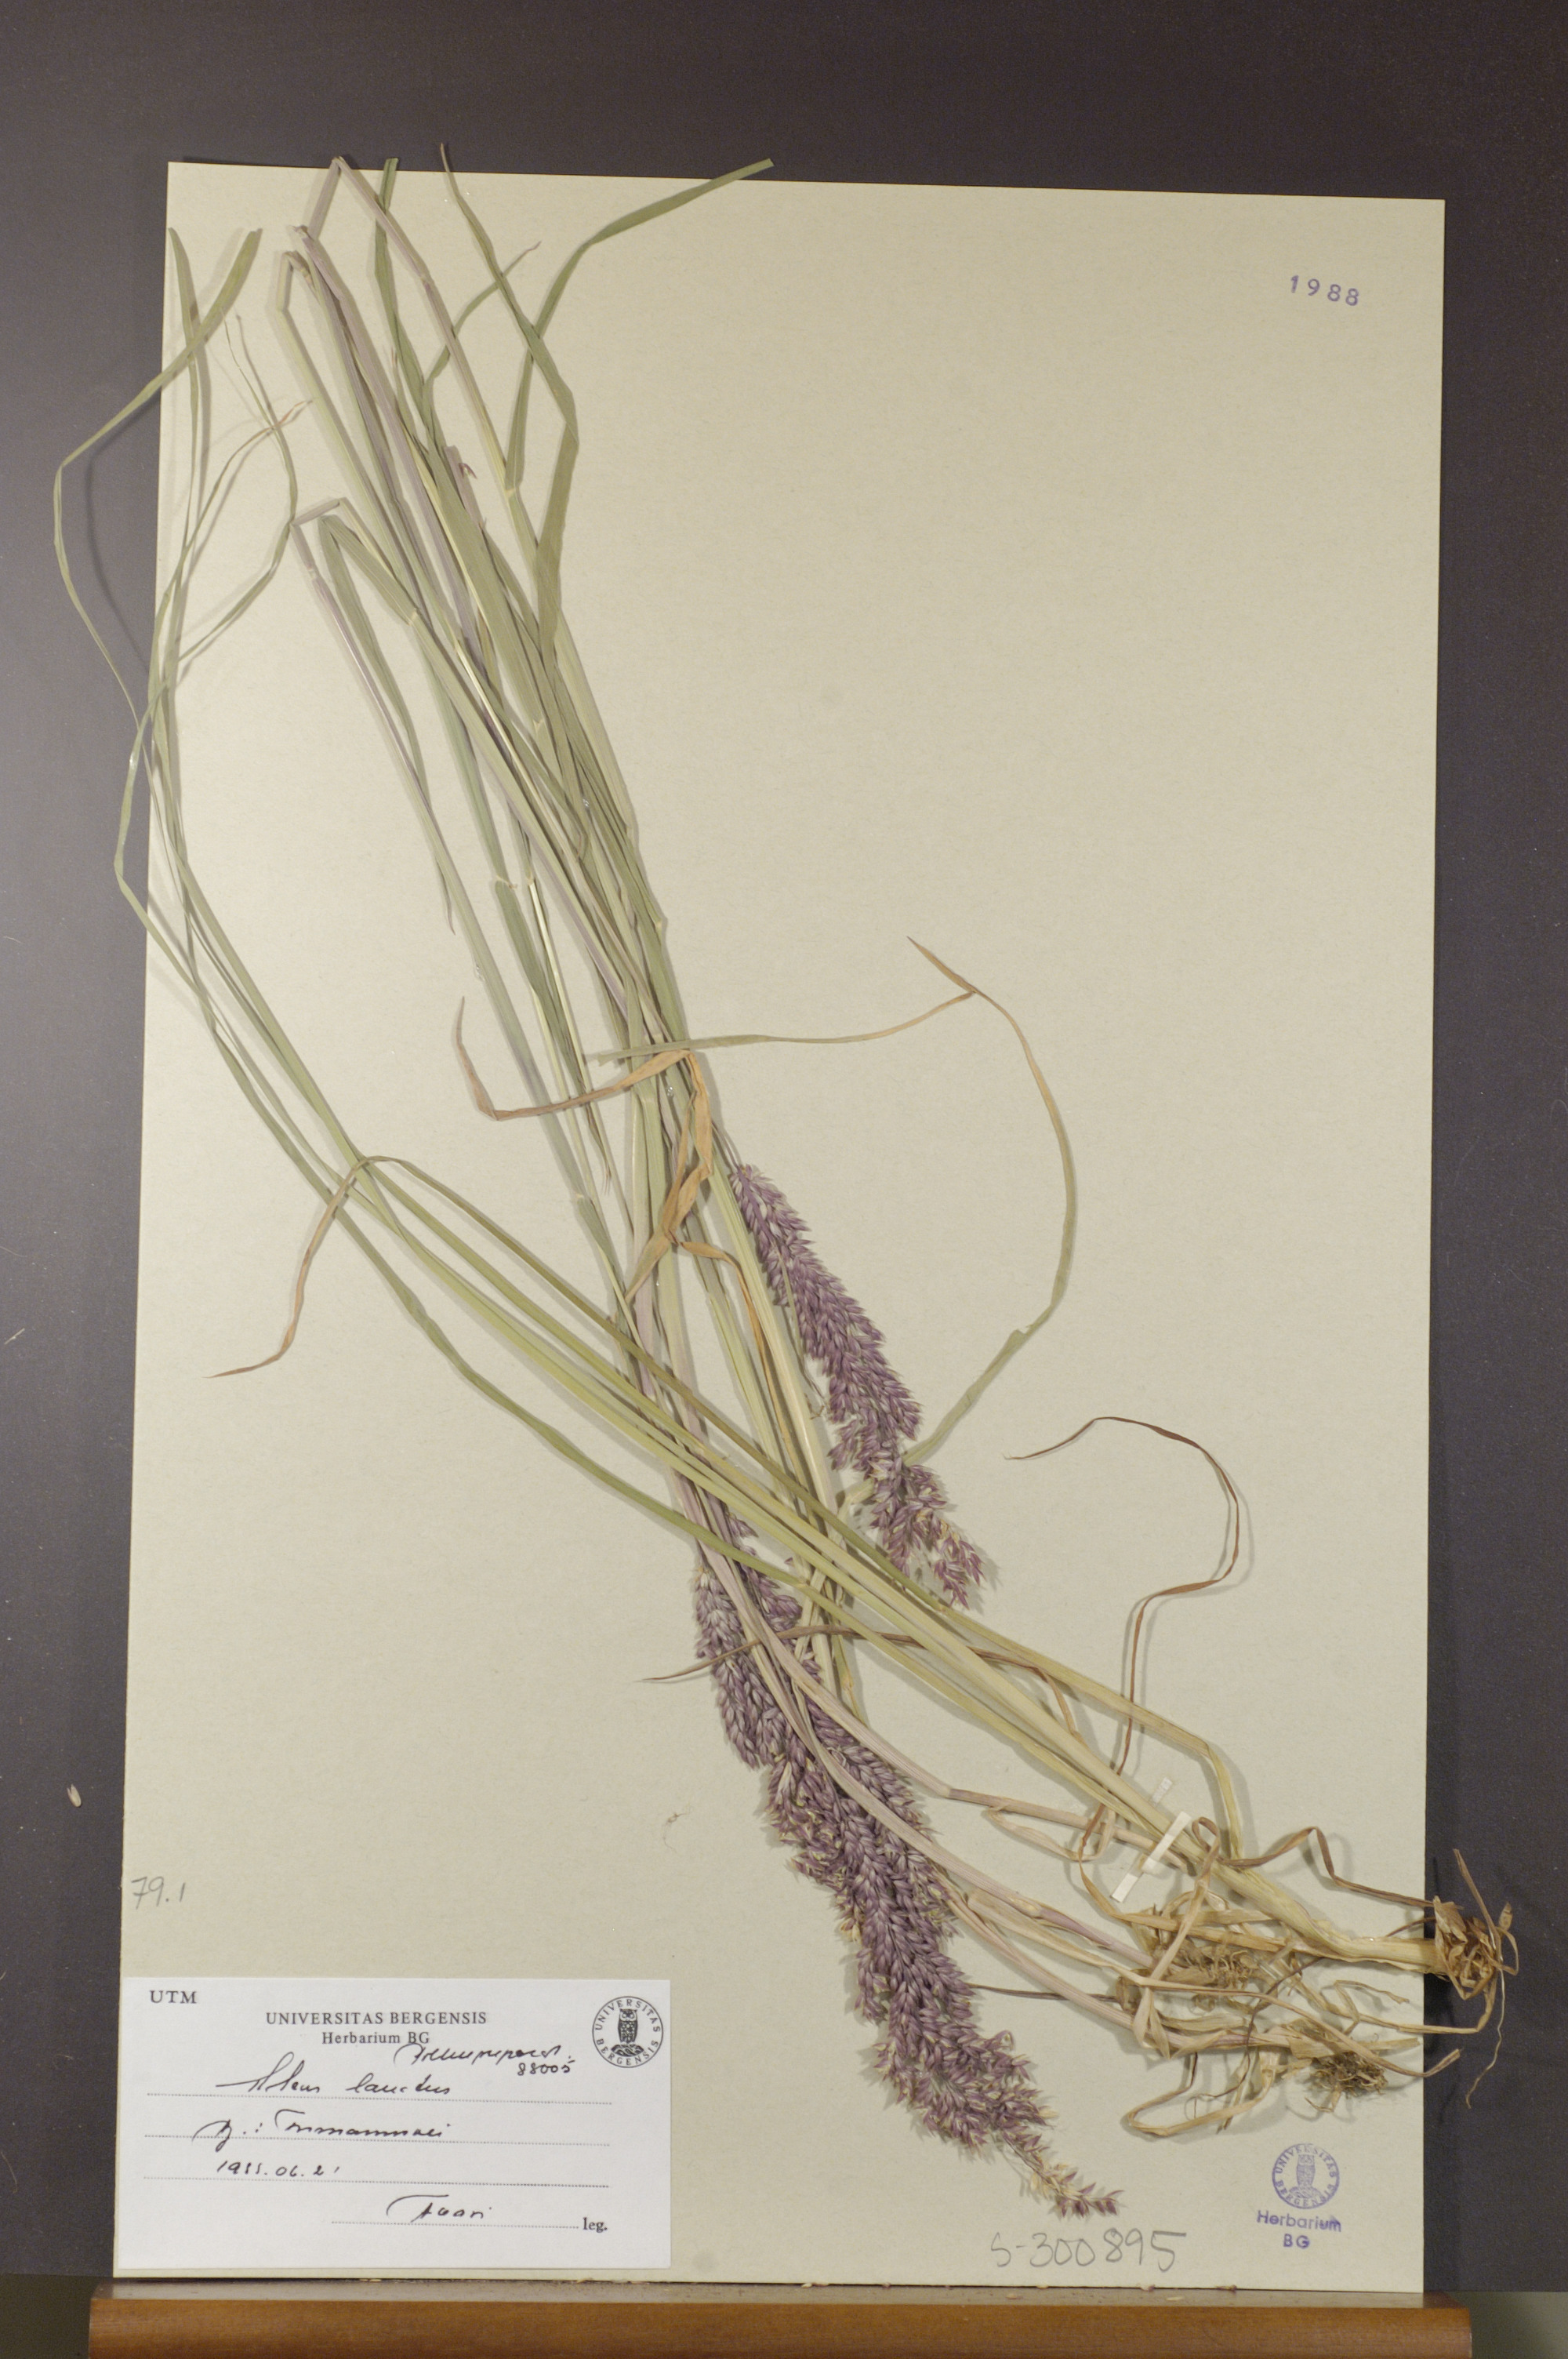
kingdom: Plantae
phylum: Tracheophyta
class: Liliopsida
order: Poales
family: Poaceae
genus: Holcus
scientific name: Holcus lanatus
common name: Yorkshire-fog
